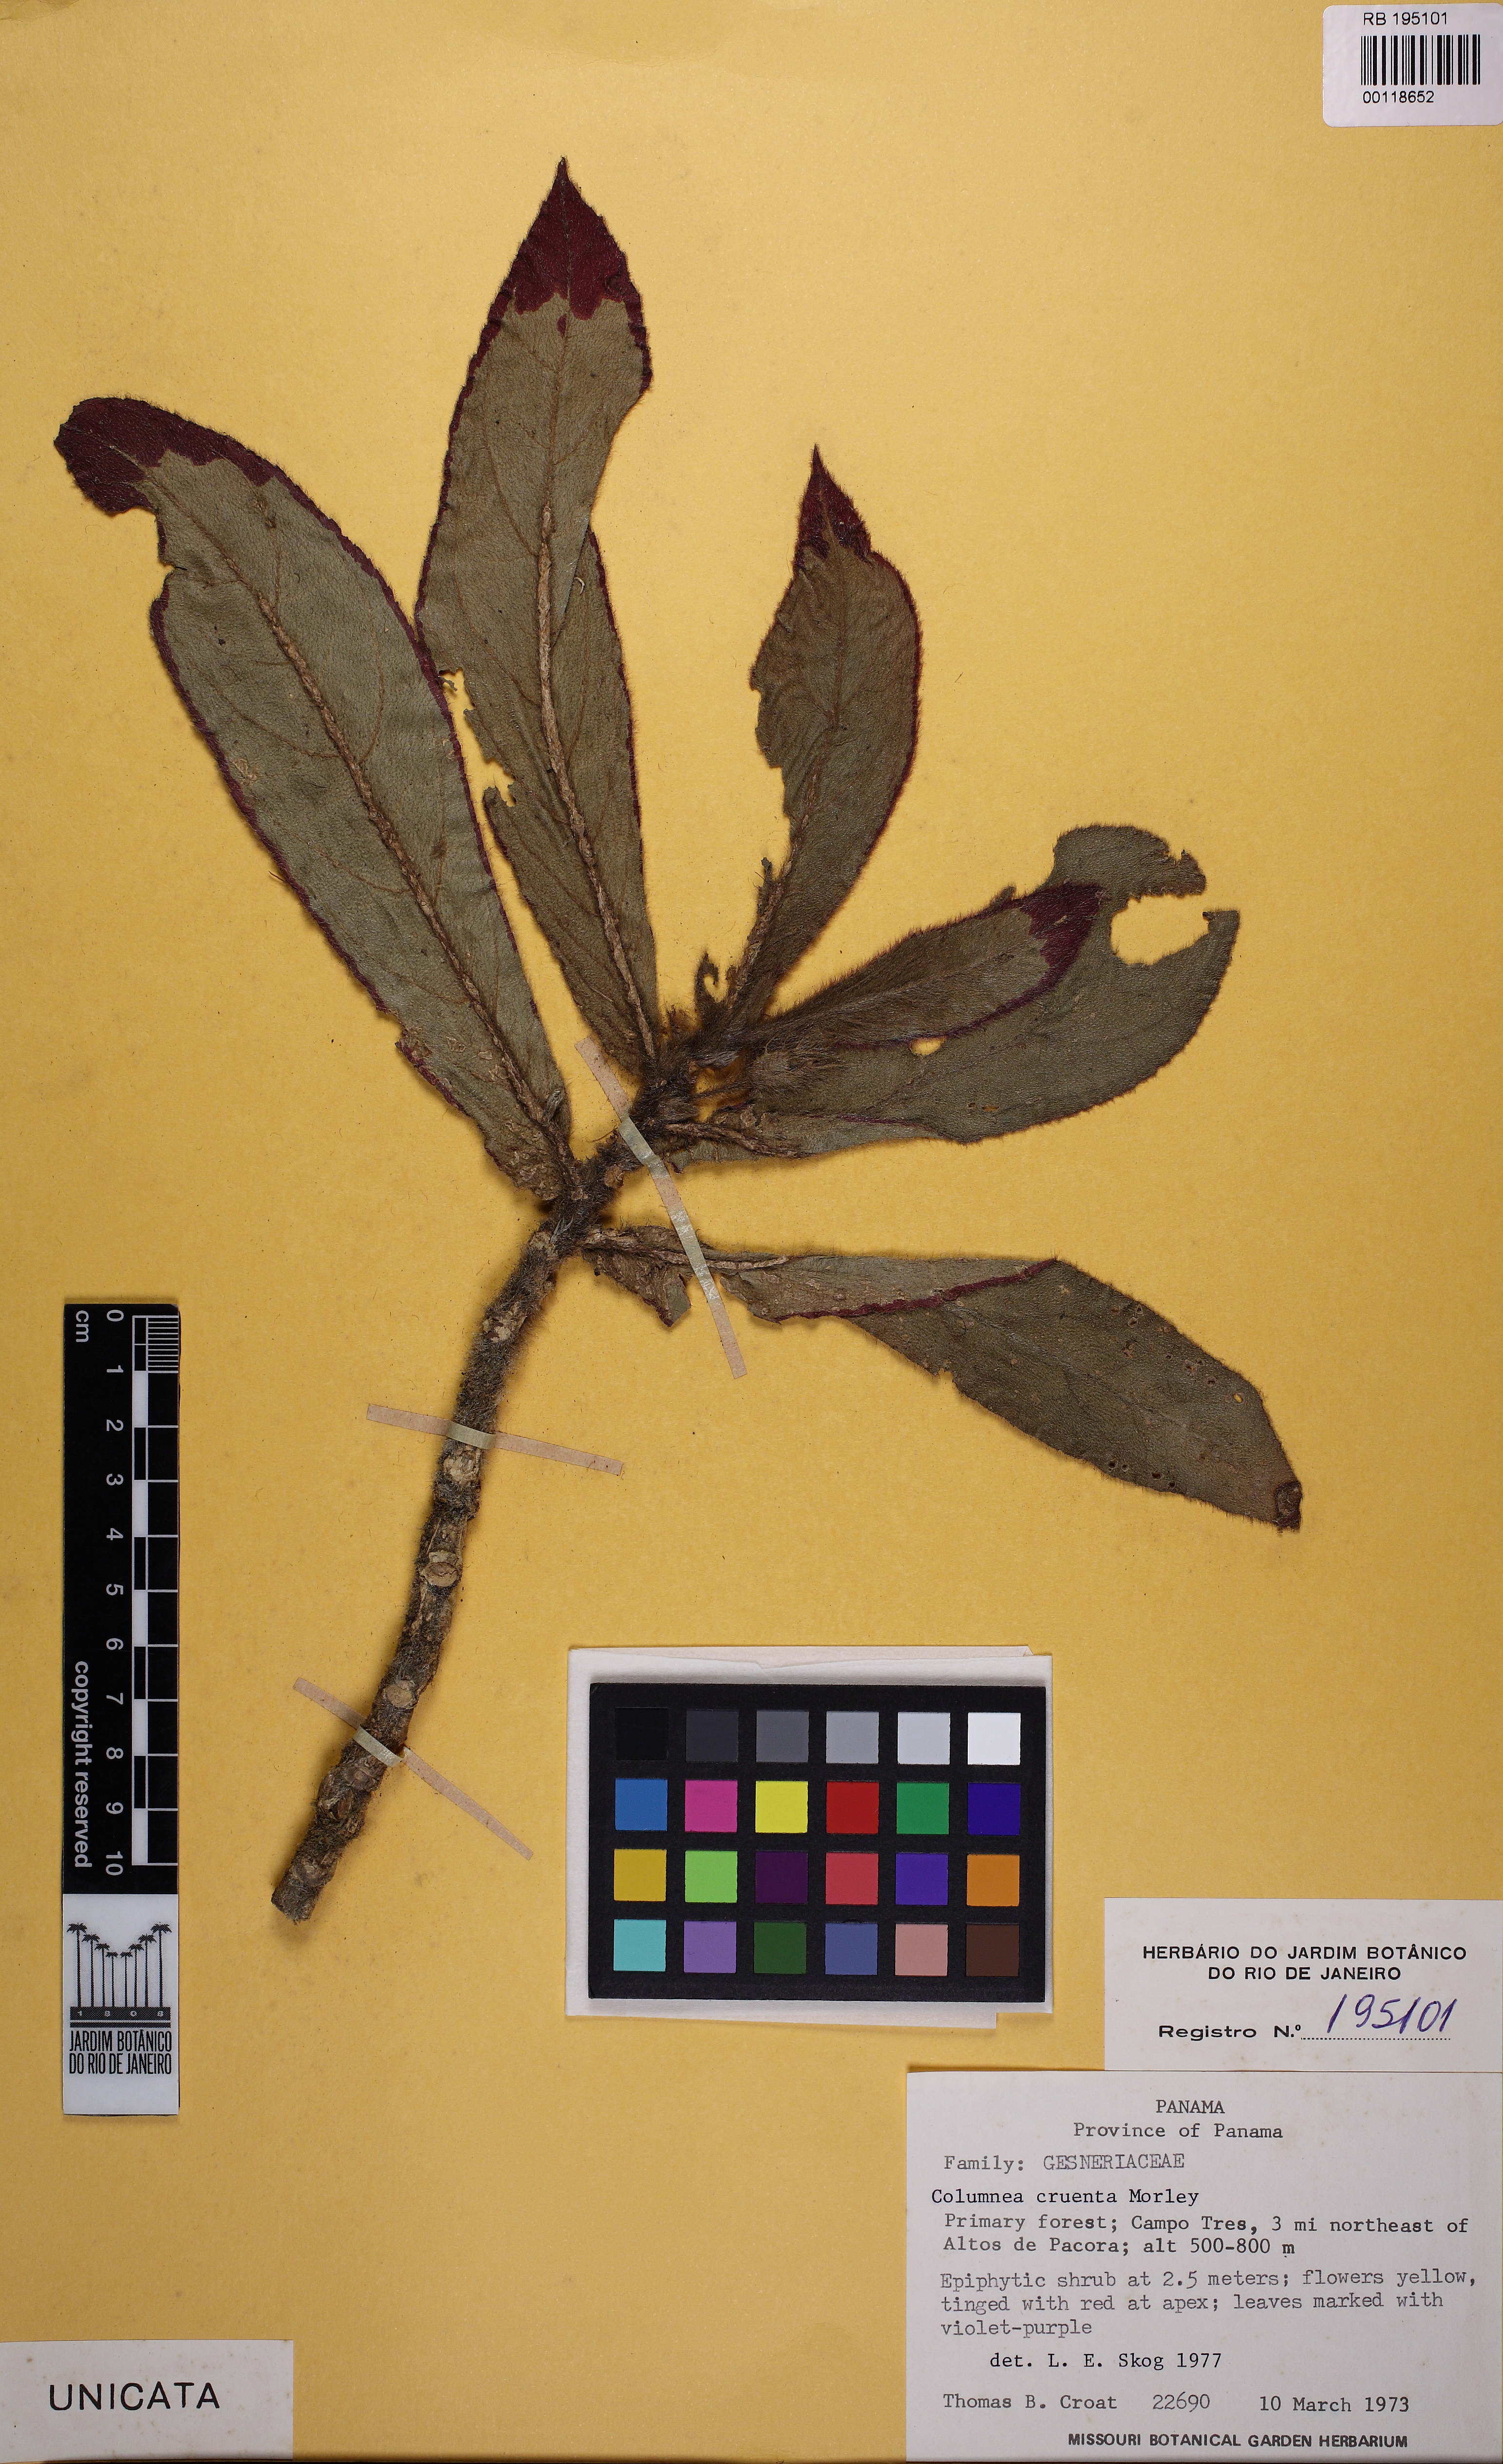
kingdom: Plantae
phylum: Tracheophyta
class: Magnoliopsida
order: Lamiales
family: Gesneriaceae
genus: Columnea
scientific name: Columnea cruenta
